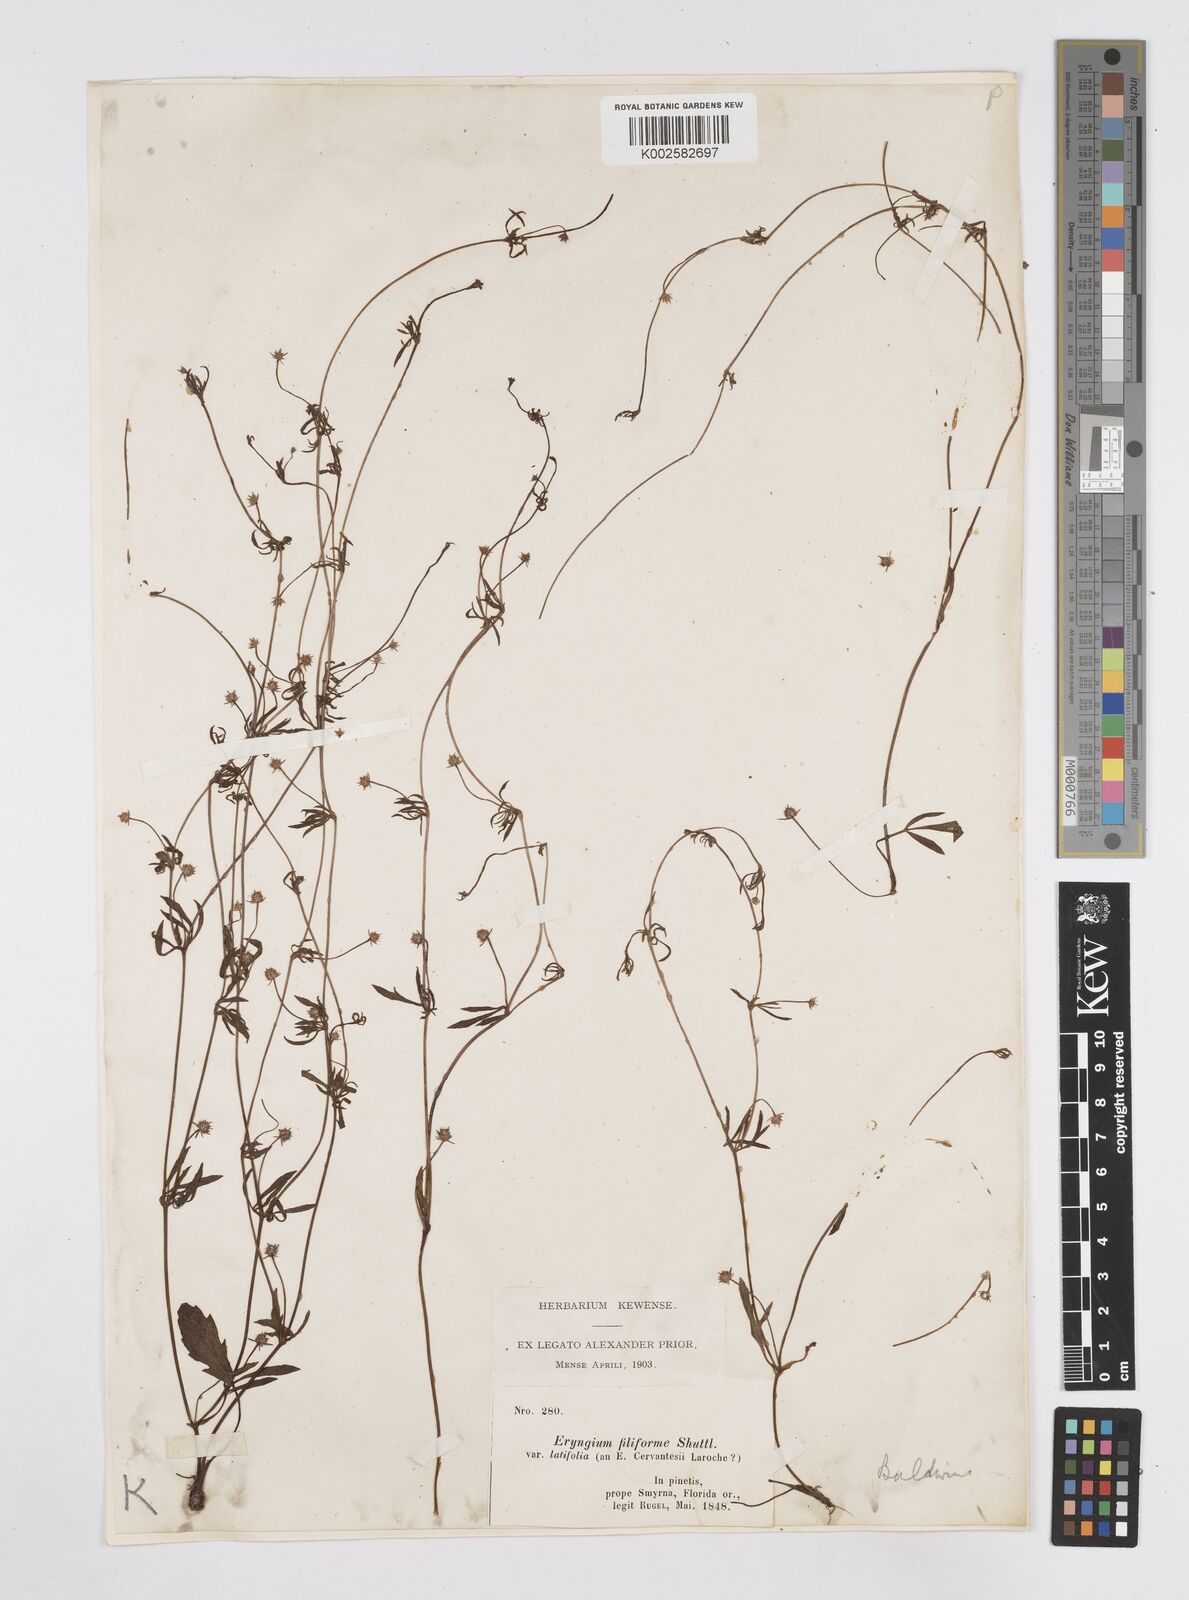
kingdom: Plantae
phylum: Tracheophyta
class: Magnoliopsida
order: Apiales
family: Apiaceae
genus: Eryngium
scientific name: Eryngium baldwinii
